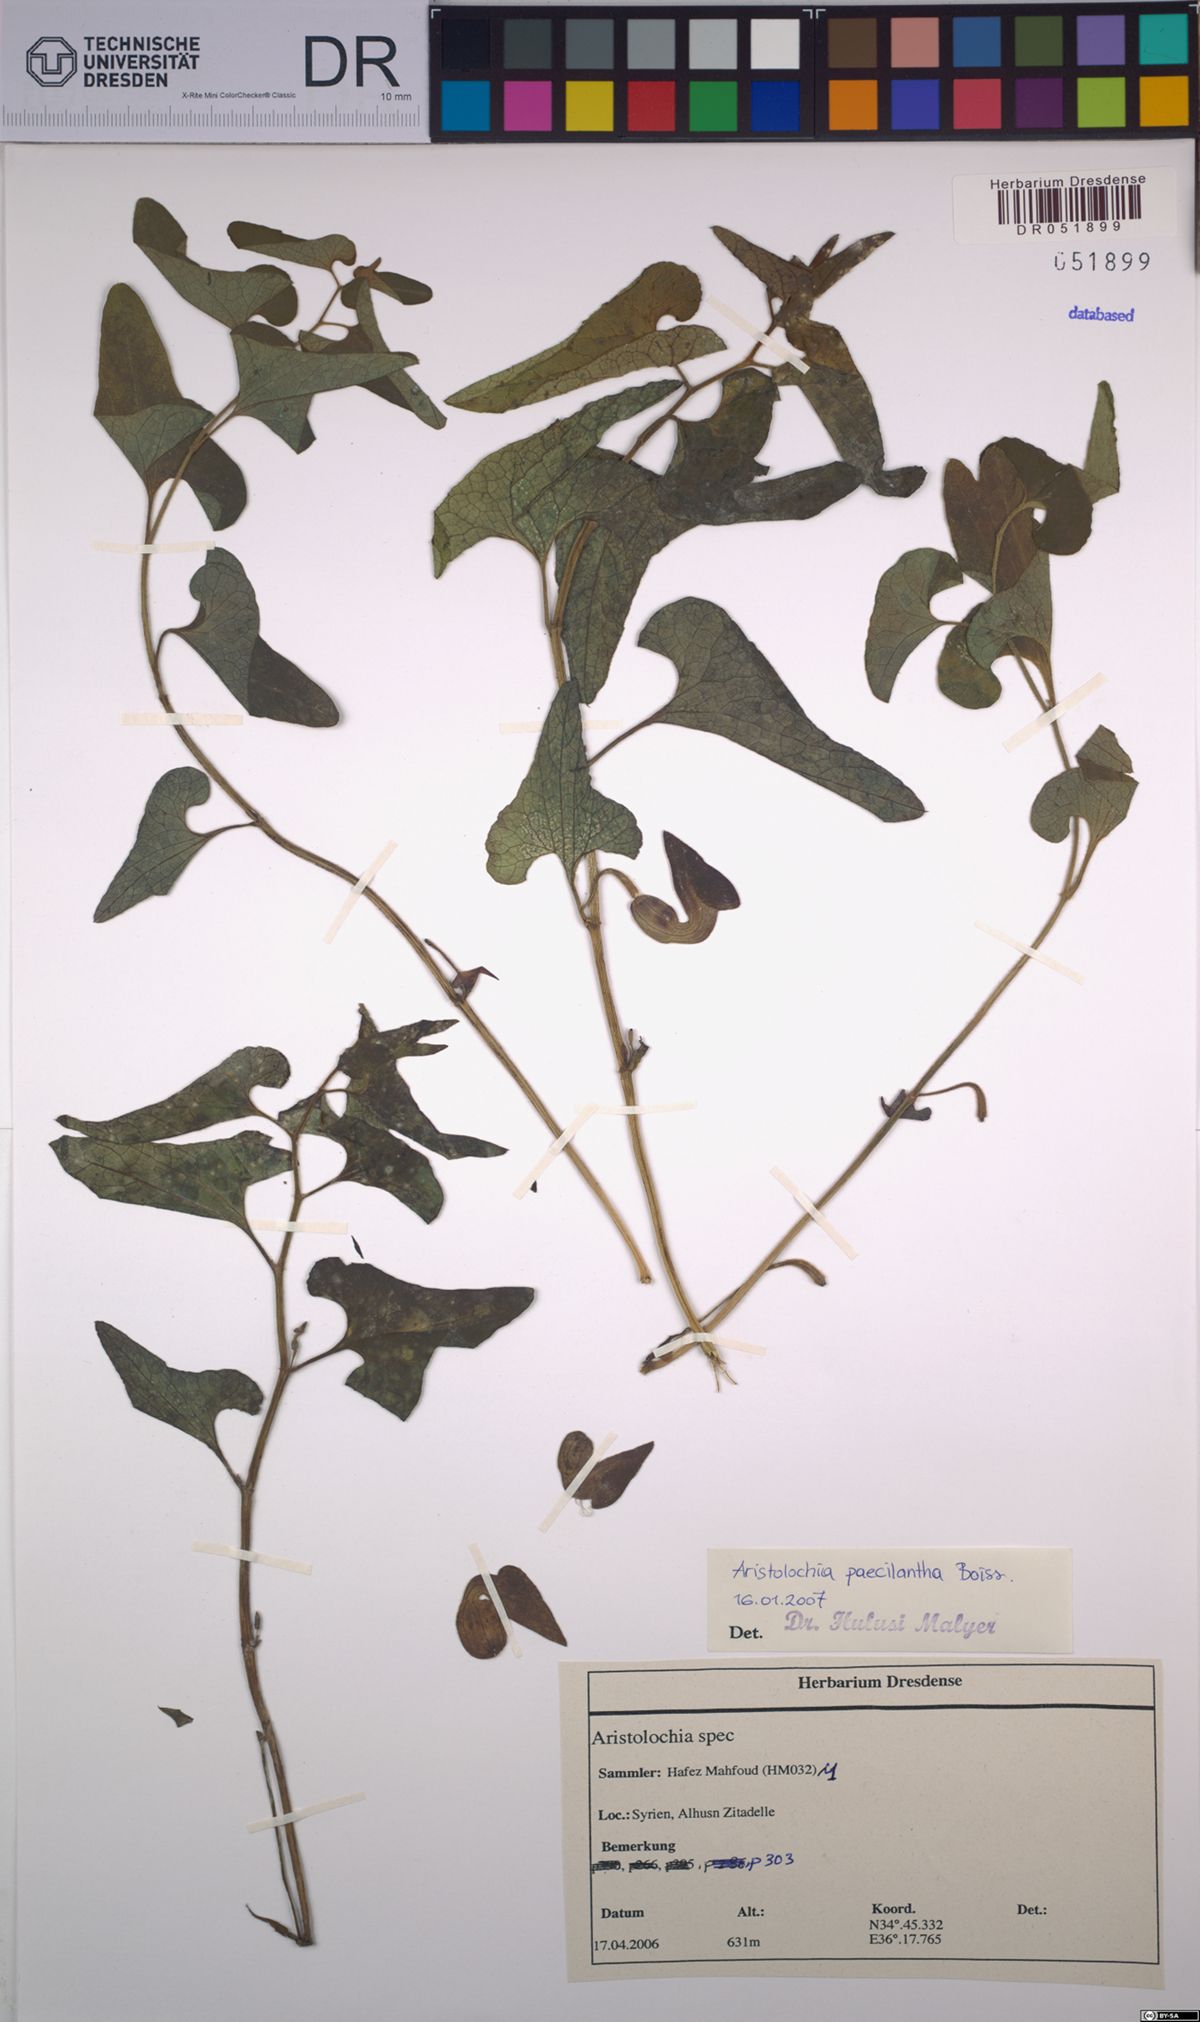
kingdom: Plantae
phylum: Tracheophyta
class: Magnoliopsida
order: Piperales
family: Aristolochiaceae
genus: Aristolochia
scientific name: Aristolochia paecilantha
